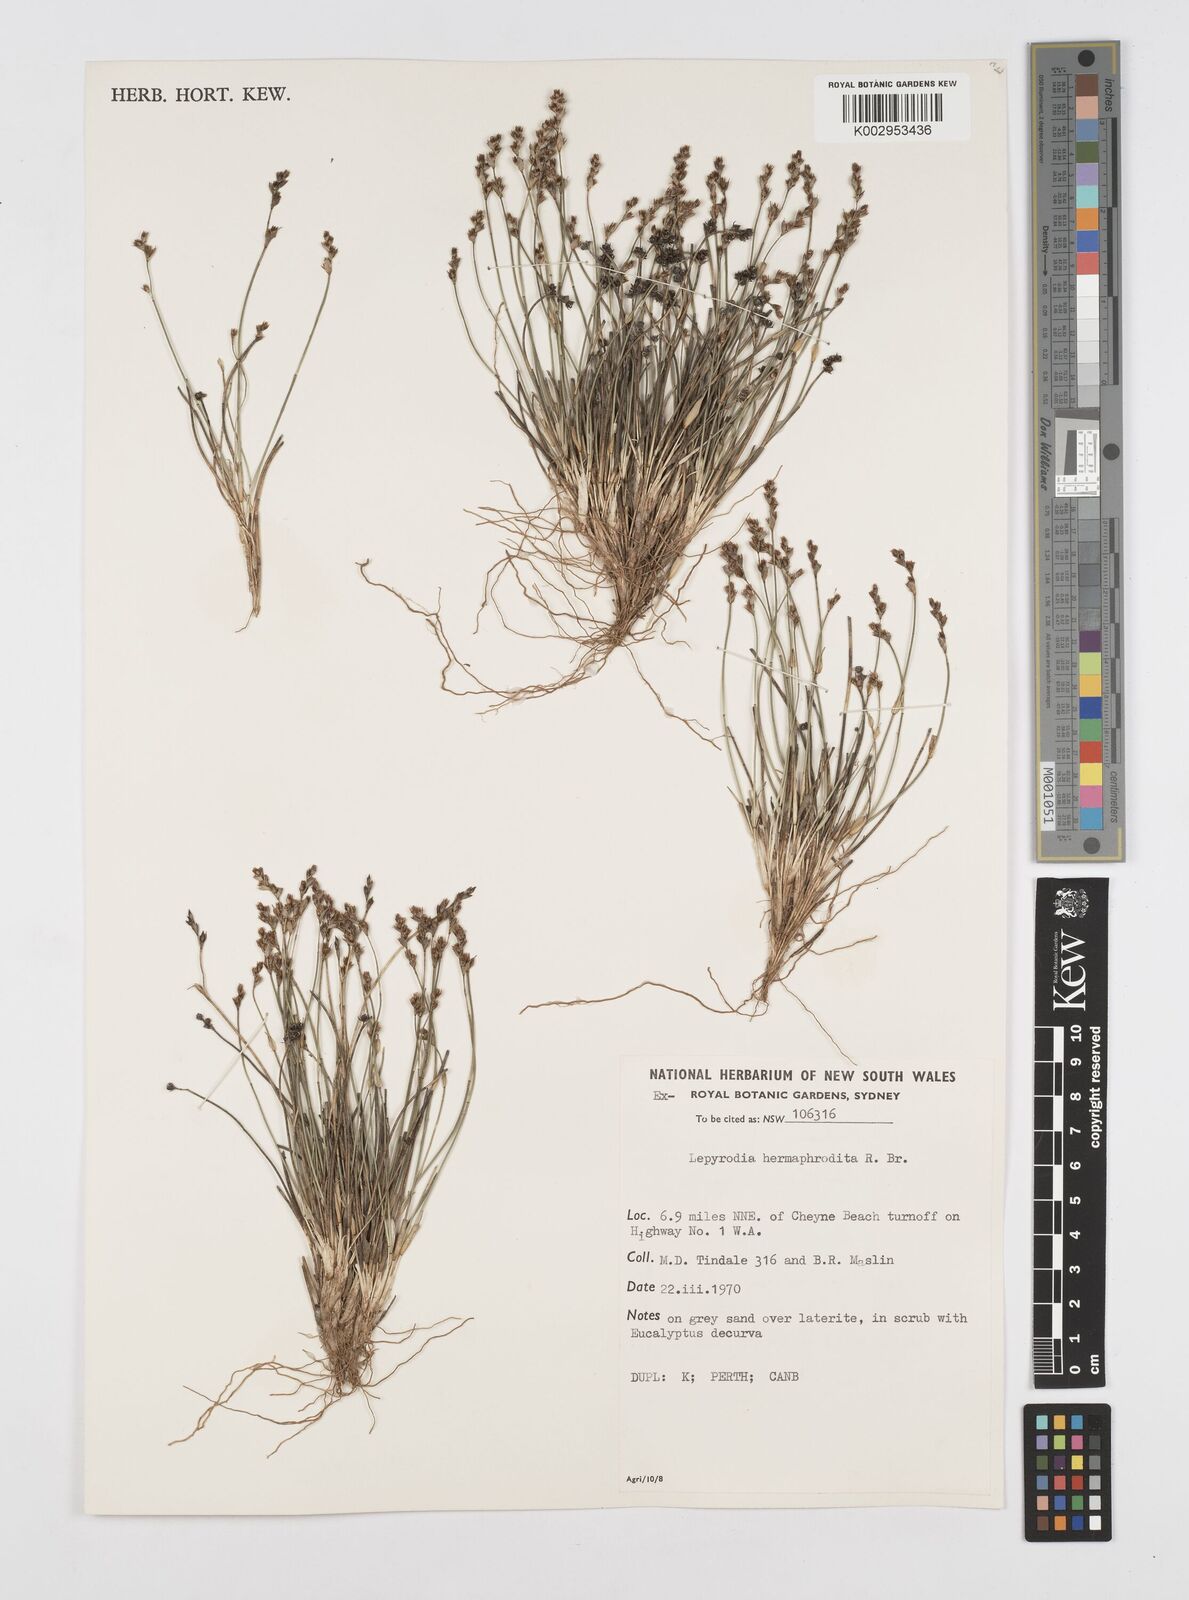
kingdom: Plantae
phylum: Tracheophyta
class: Liliopsida
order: Poales
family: Restionaceae
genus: Lepyrodia
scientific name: Lepyrodia hermaphrodita
